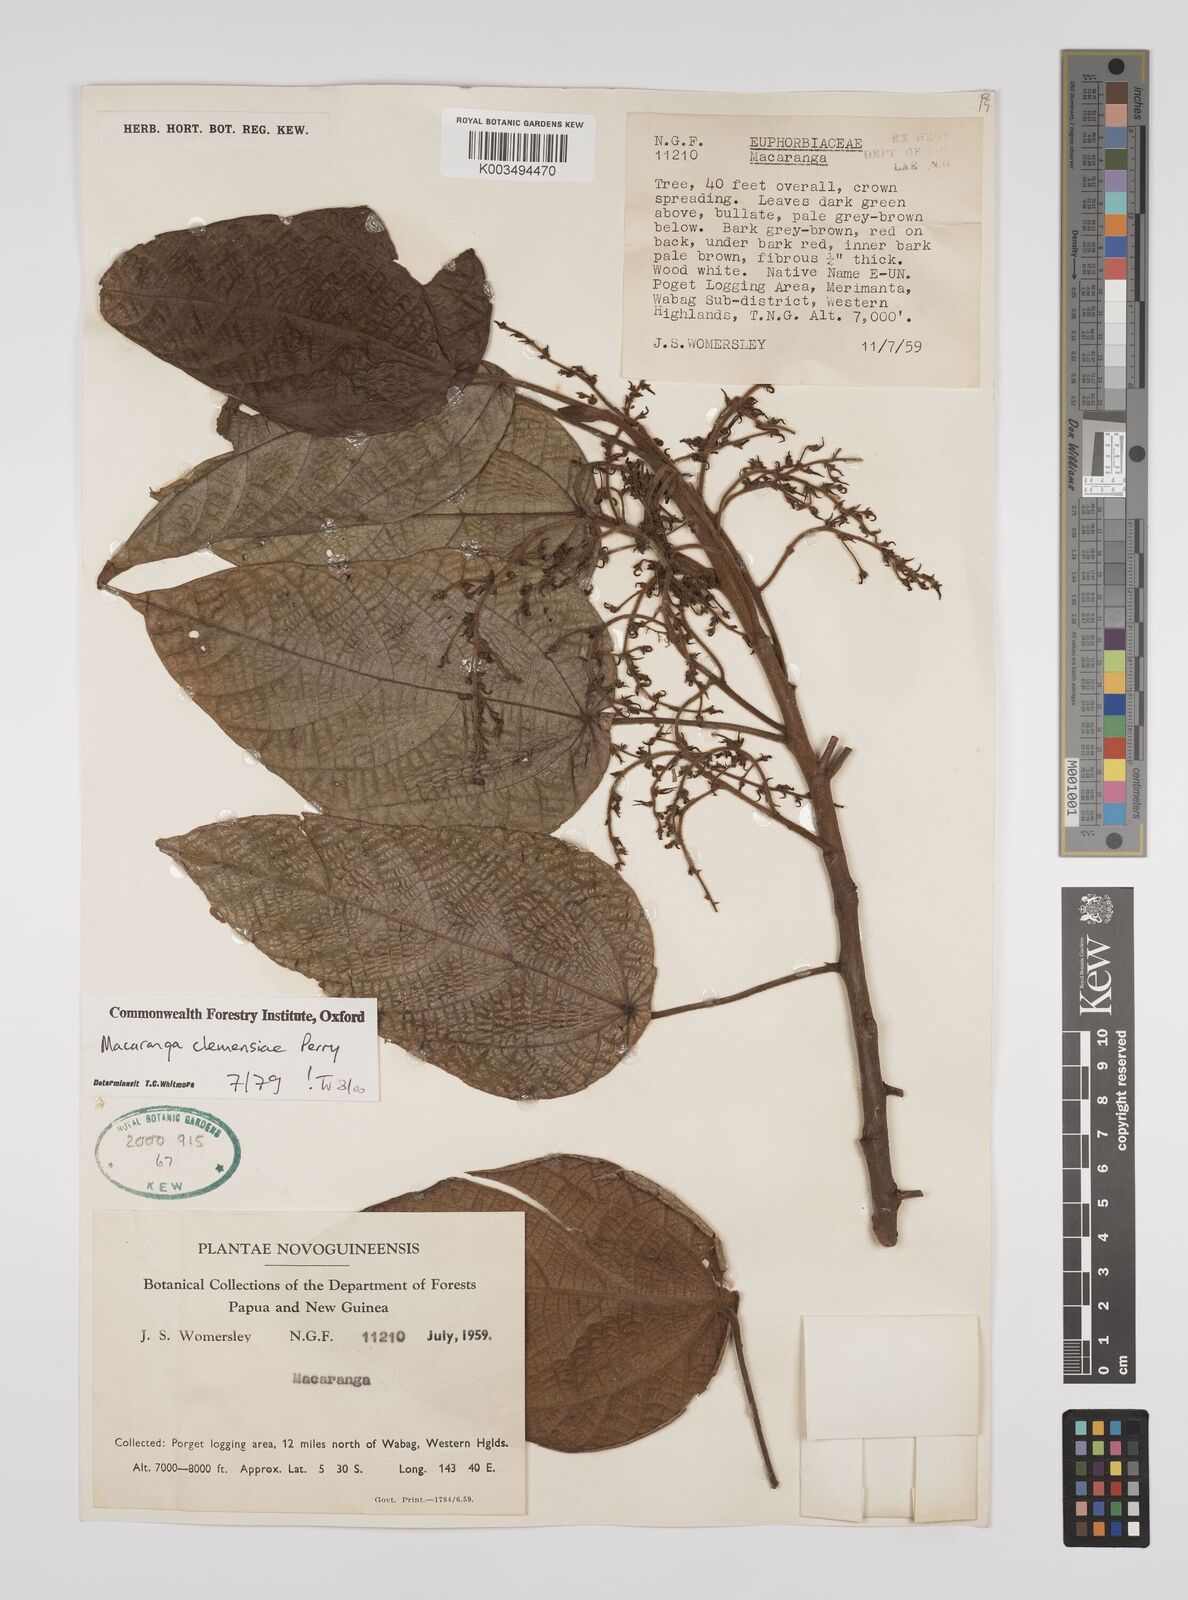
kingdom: Plantae
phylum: Tracheophyta
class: Magnoliopsida
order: Malpighiales
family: Euphorbiaceae
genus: Macaranga
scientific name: Macaranga clemensiae
